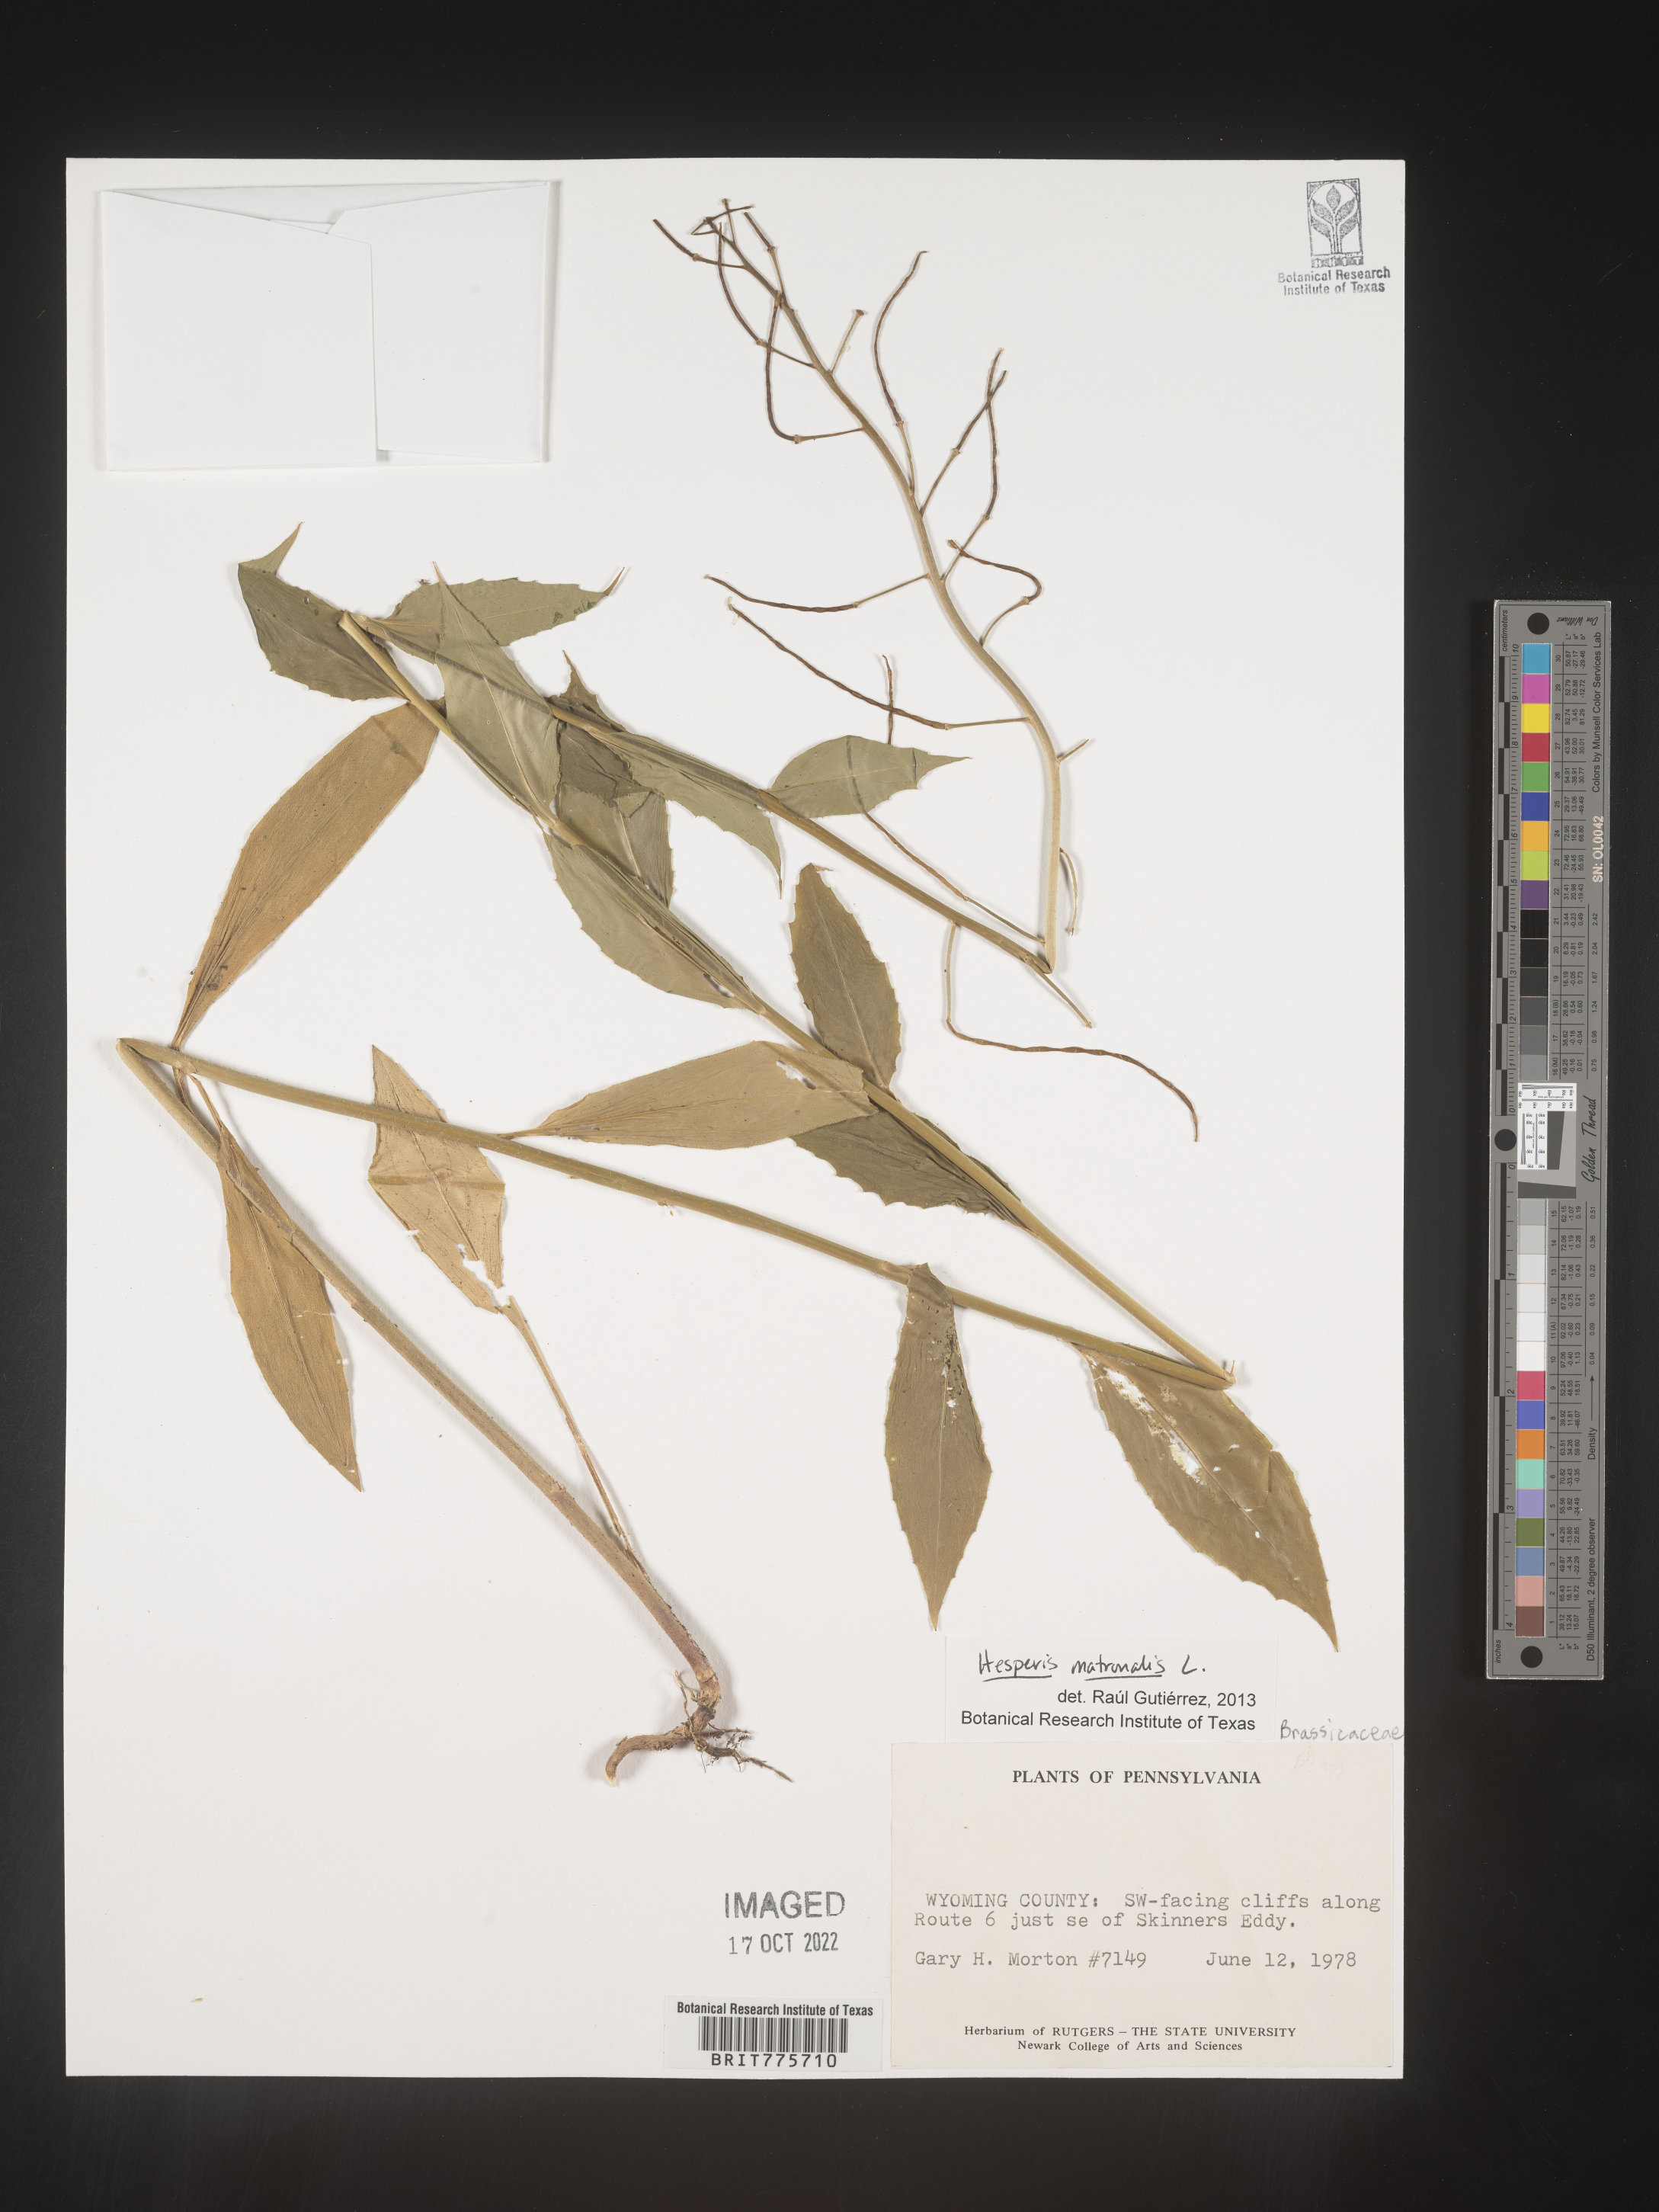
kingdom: Plantae
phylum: Tracheophyta
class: Magnoliopsida
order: Brassicales
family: Brassicaceae
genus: Hesperis
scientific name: Hesperis matronalis
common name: Dame's-violet
